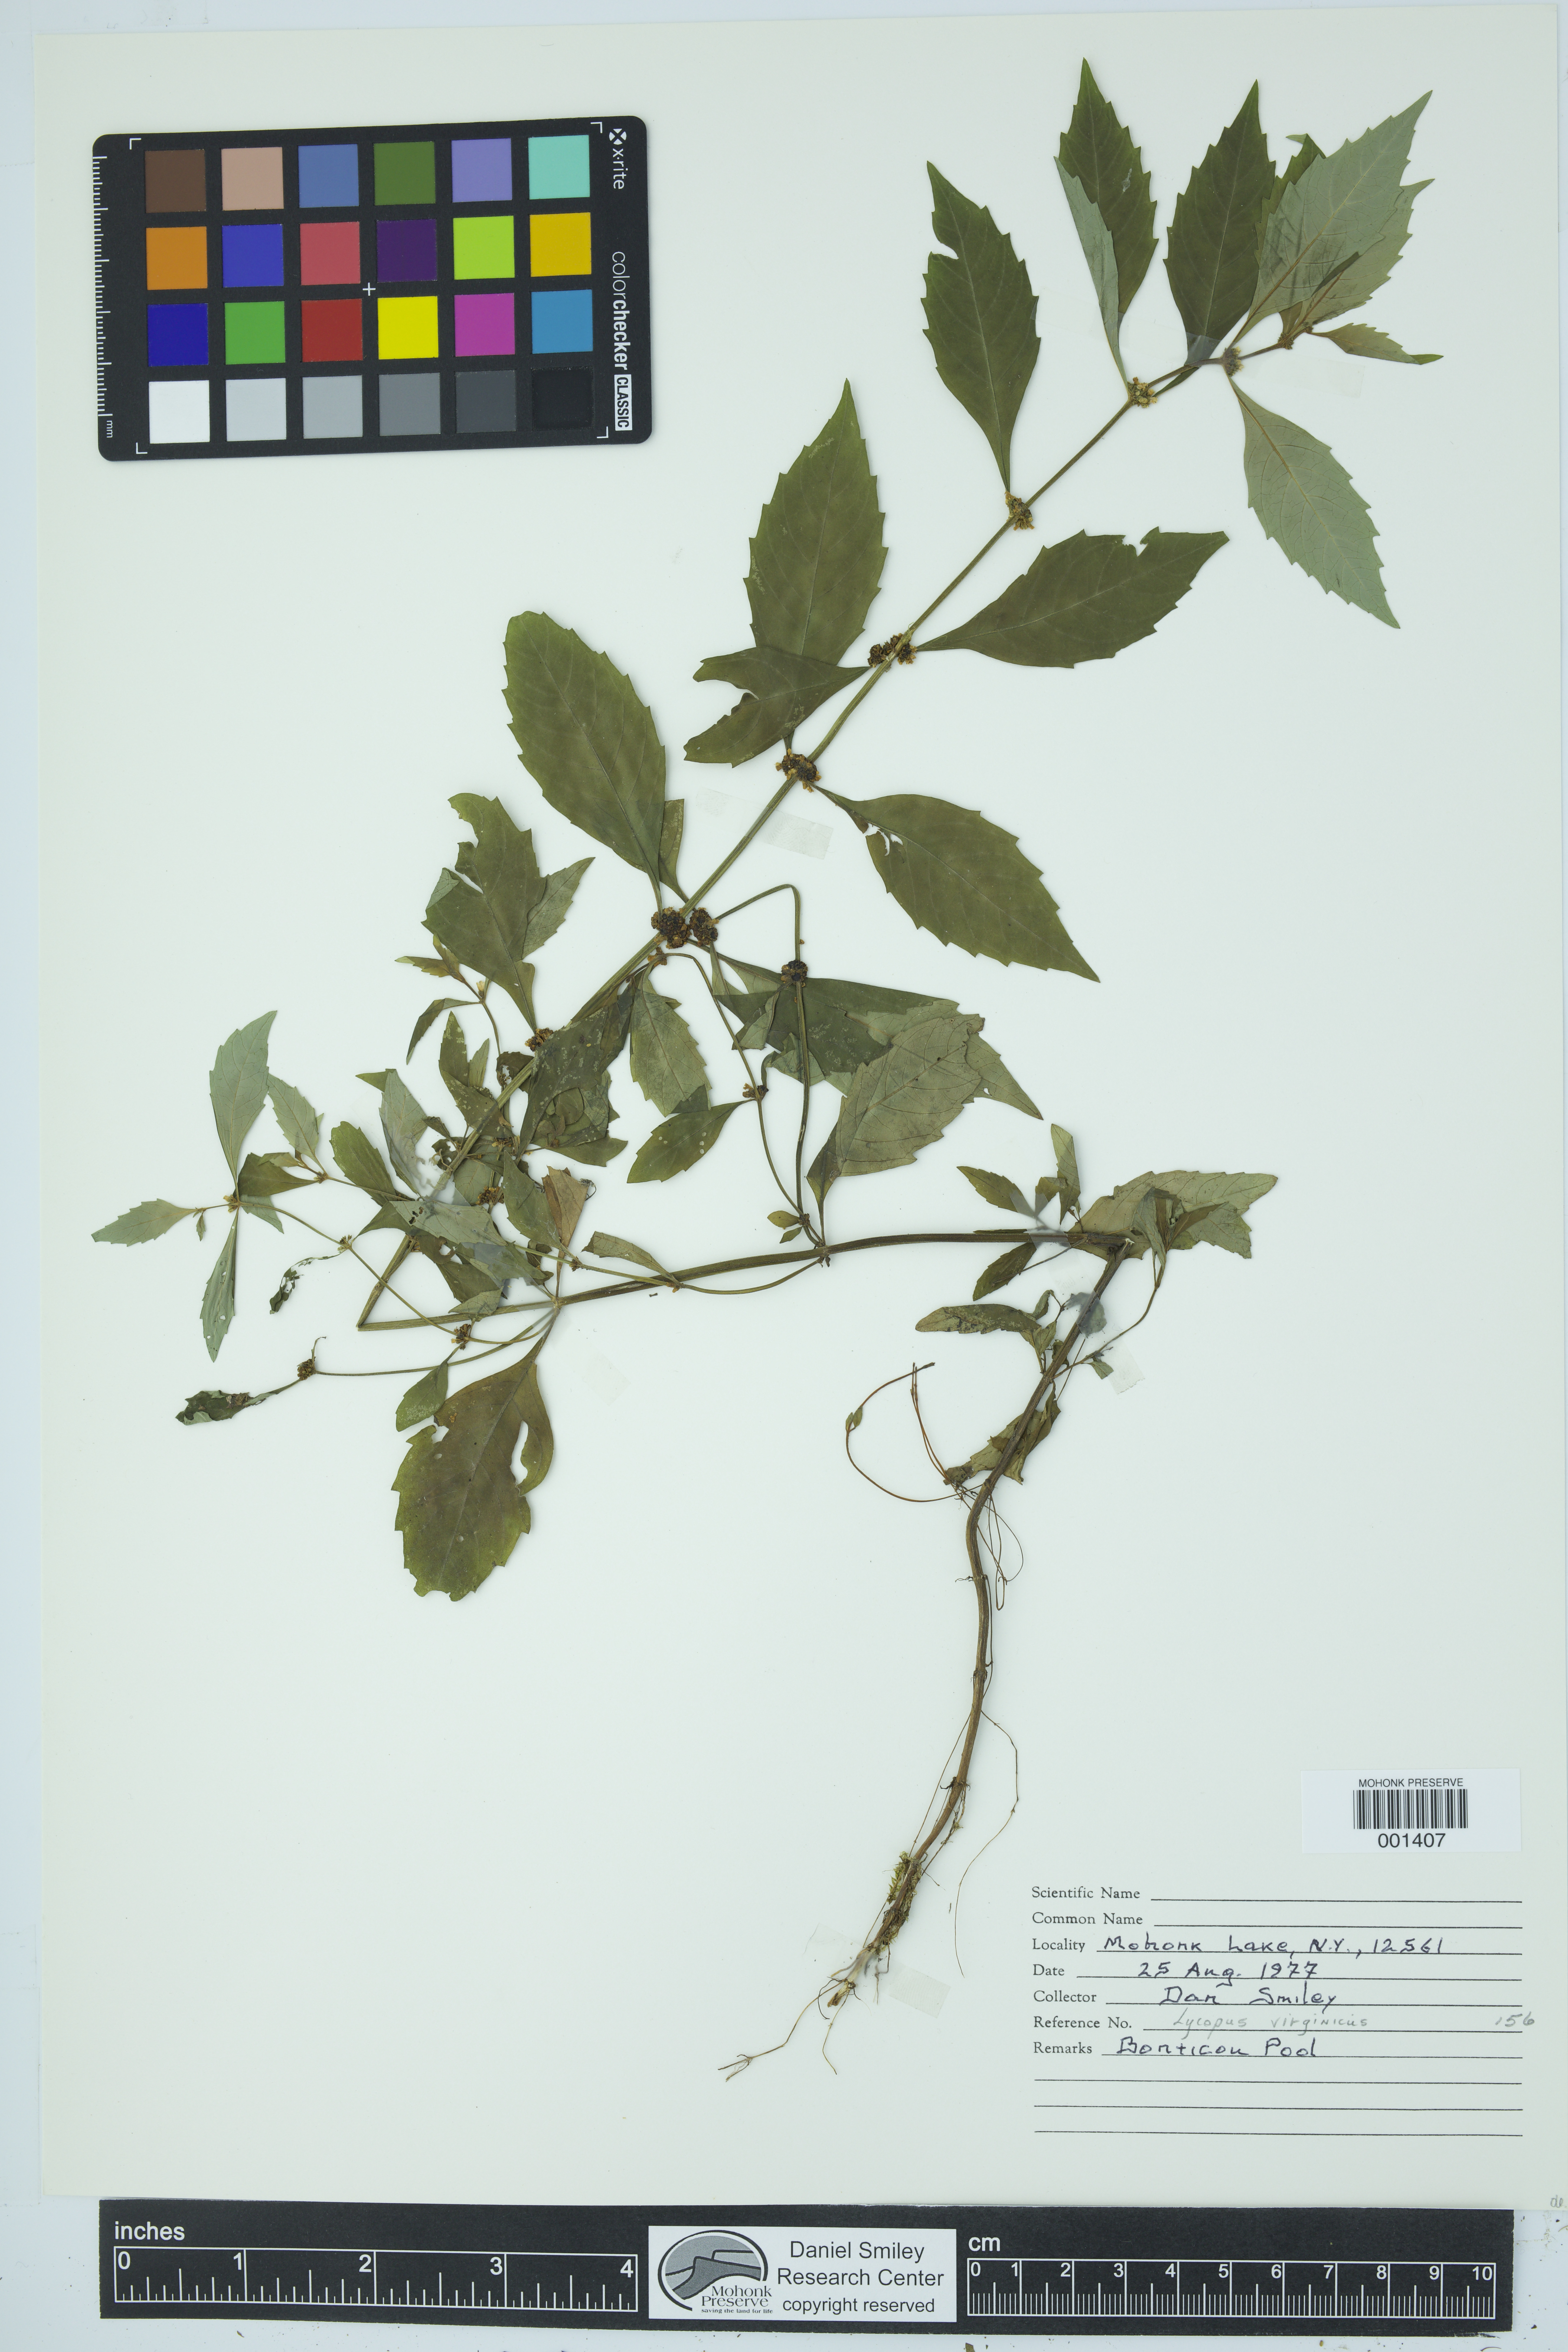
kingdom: Plantae
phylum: Tracheophyta
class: Magnoliopsida
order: Lamiales
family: Lamiaceae
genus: Lycopus
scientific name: Lycopus virginicus
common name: Bugleweed
